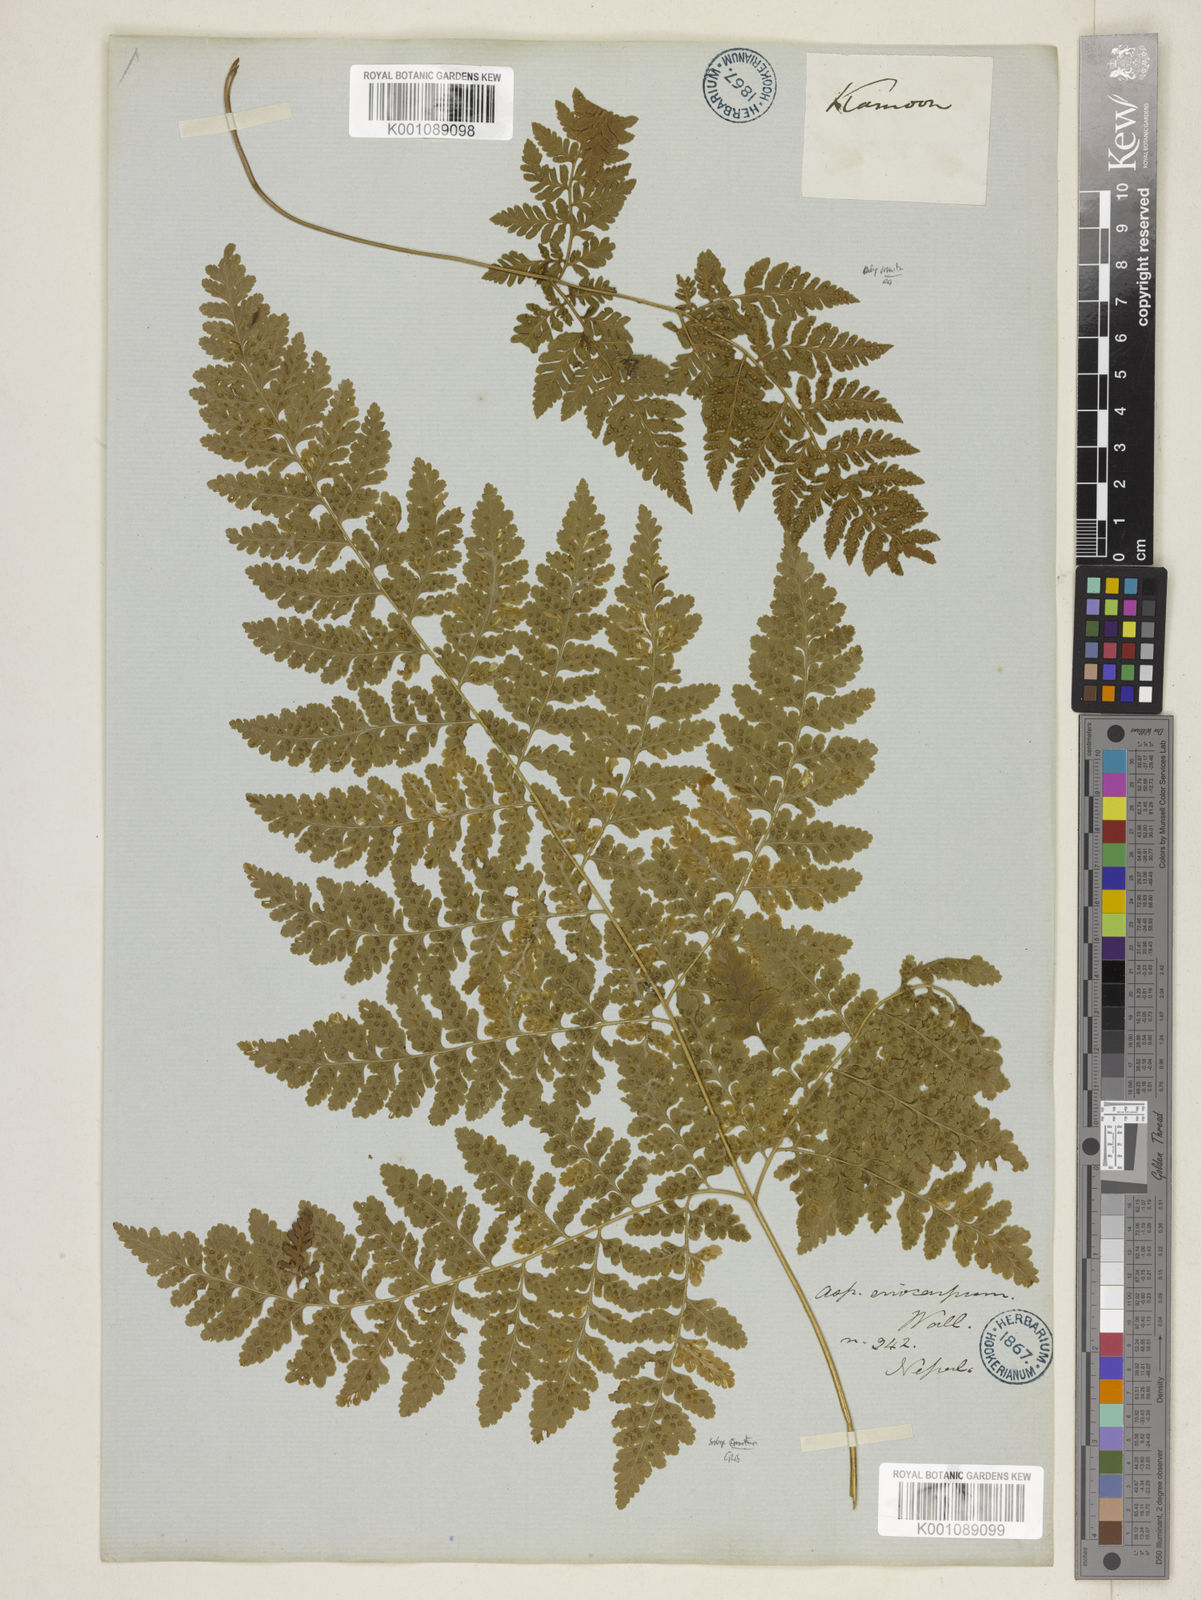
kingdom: Plantae
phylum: Tracheophyta
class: Polypodiopsida
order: Polypodiales
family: Hypodematiaceae
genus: Hypodematium
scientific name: Hypodematium chrysolepis
